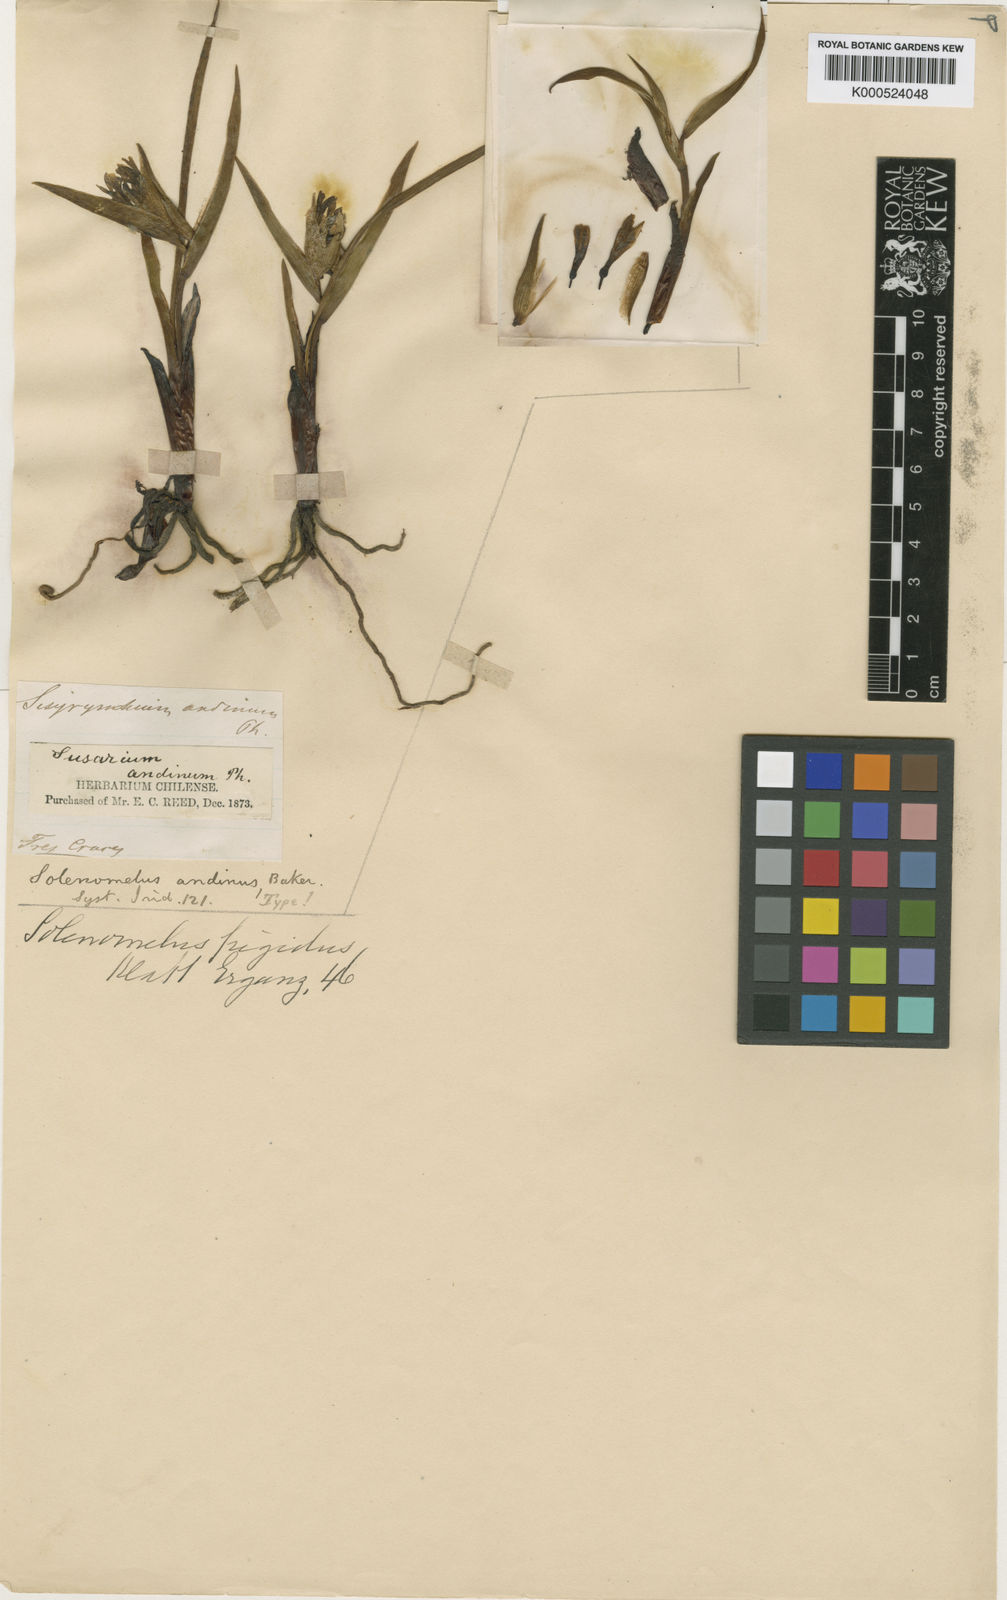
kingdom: Plantae
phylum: Tracheophyta
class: Liliopsida
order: Asparagales
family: Iridaceae
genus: Olsynium
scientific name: Olsynium obscurum
